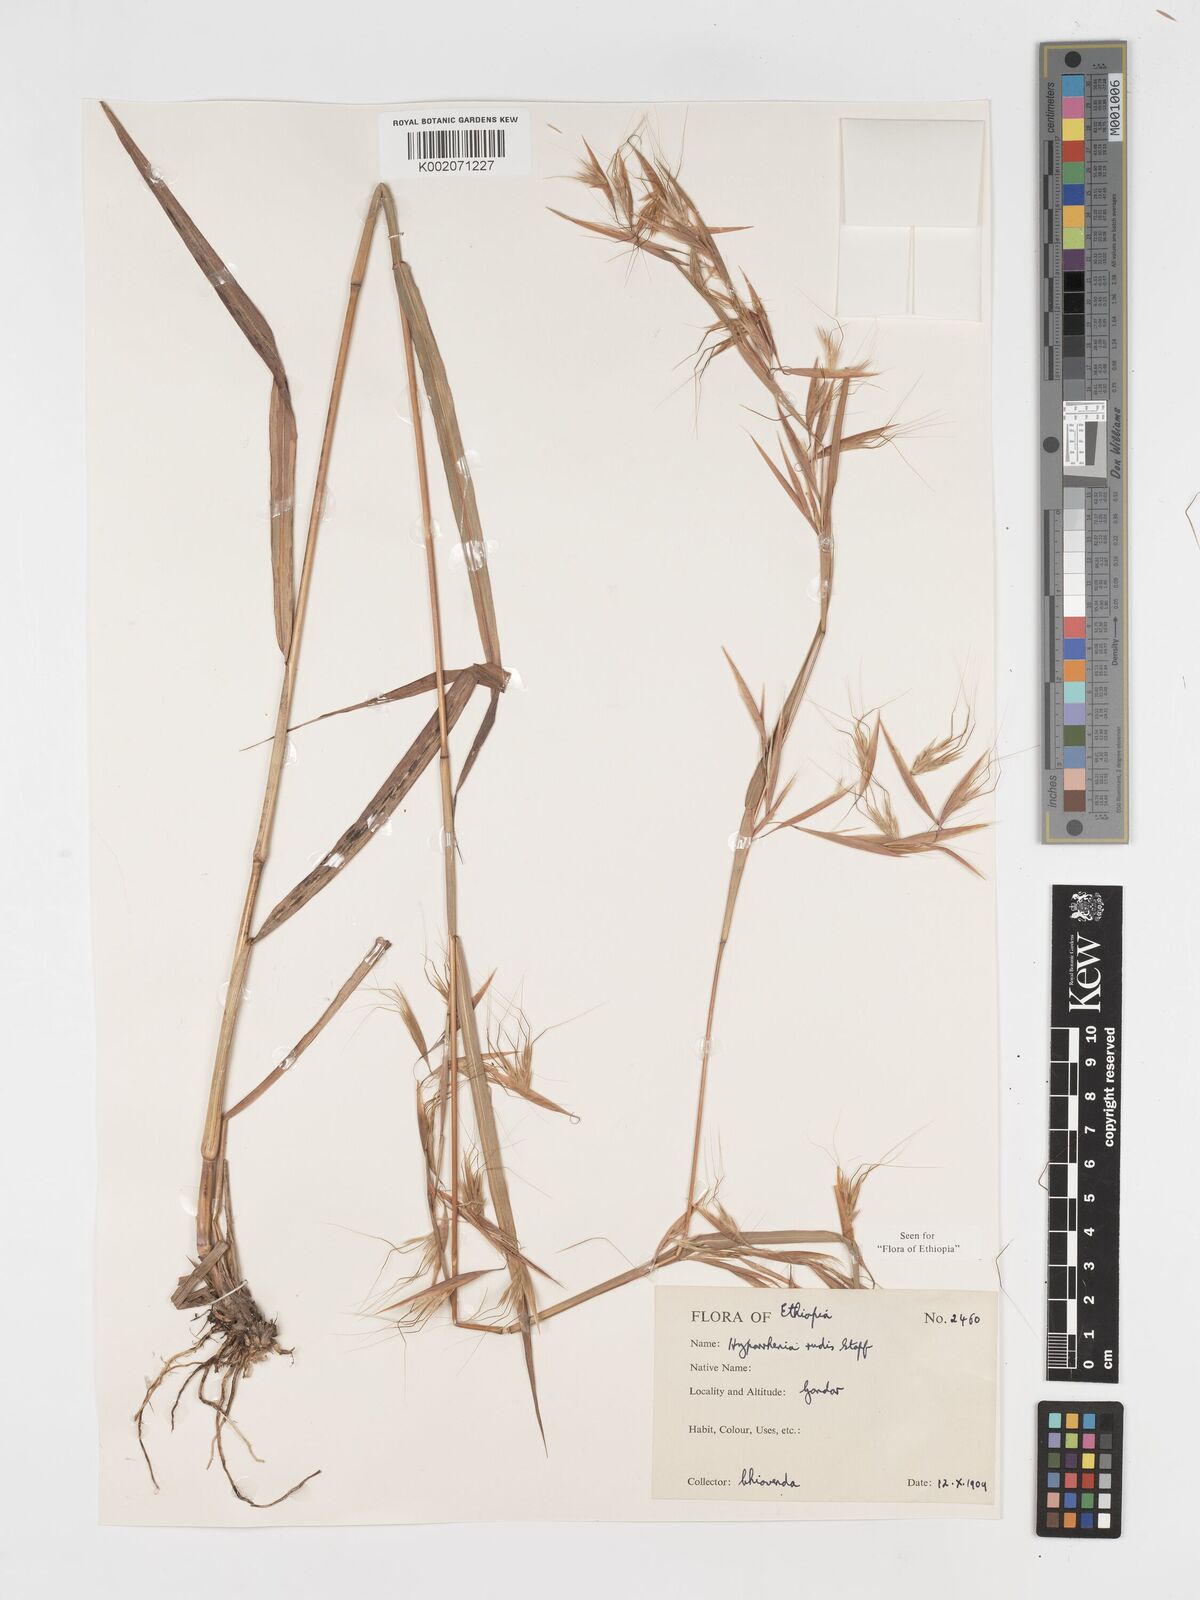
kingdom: Plantae
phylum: Tracheophyta
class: Liliopsida
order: Poales
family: Poaceae
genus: Hyparrhenia
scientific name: Hyparrhenia rudis
